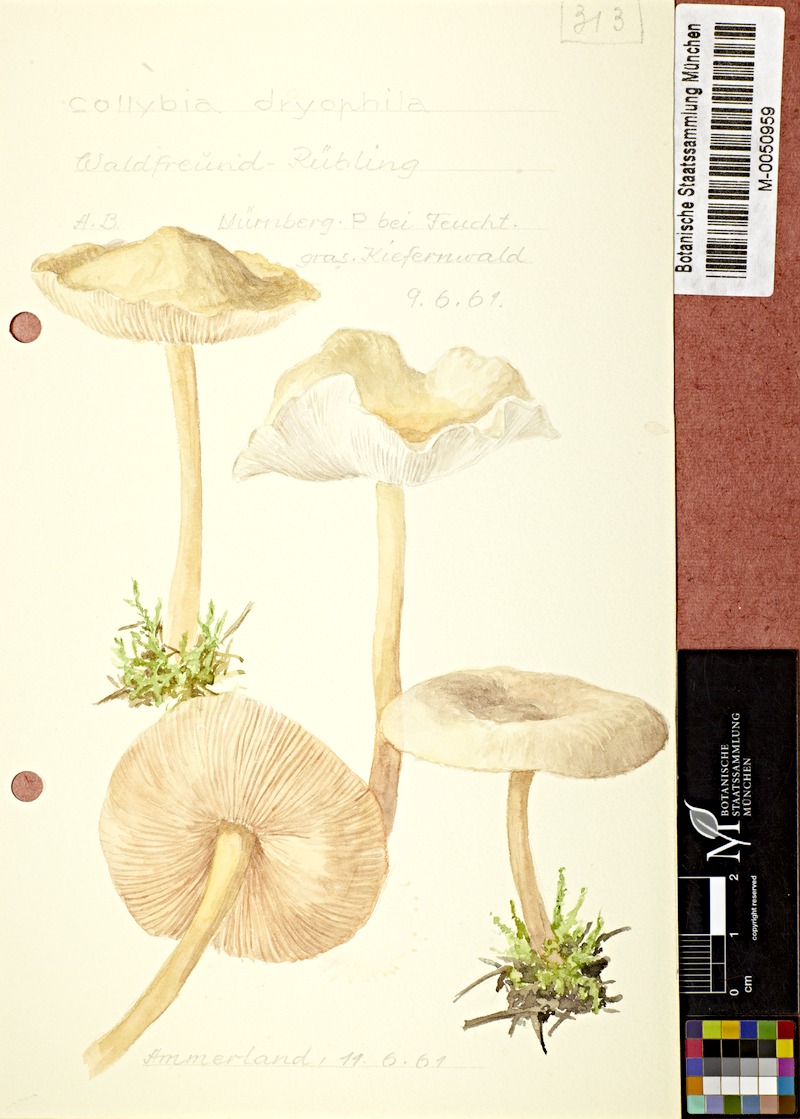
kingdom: Fungi
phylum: Basidiomycota
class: Agaricomycetes
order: Agaricales
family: Omphalotaceae
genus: Gymnopus
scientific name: Gymnopus dryophilus
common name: Penny top
